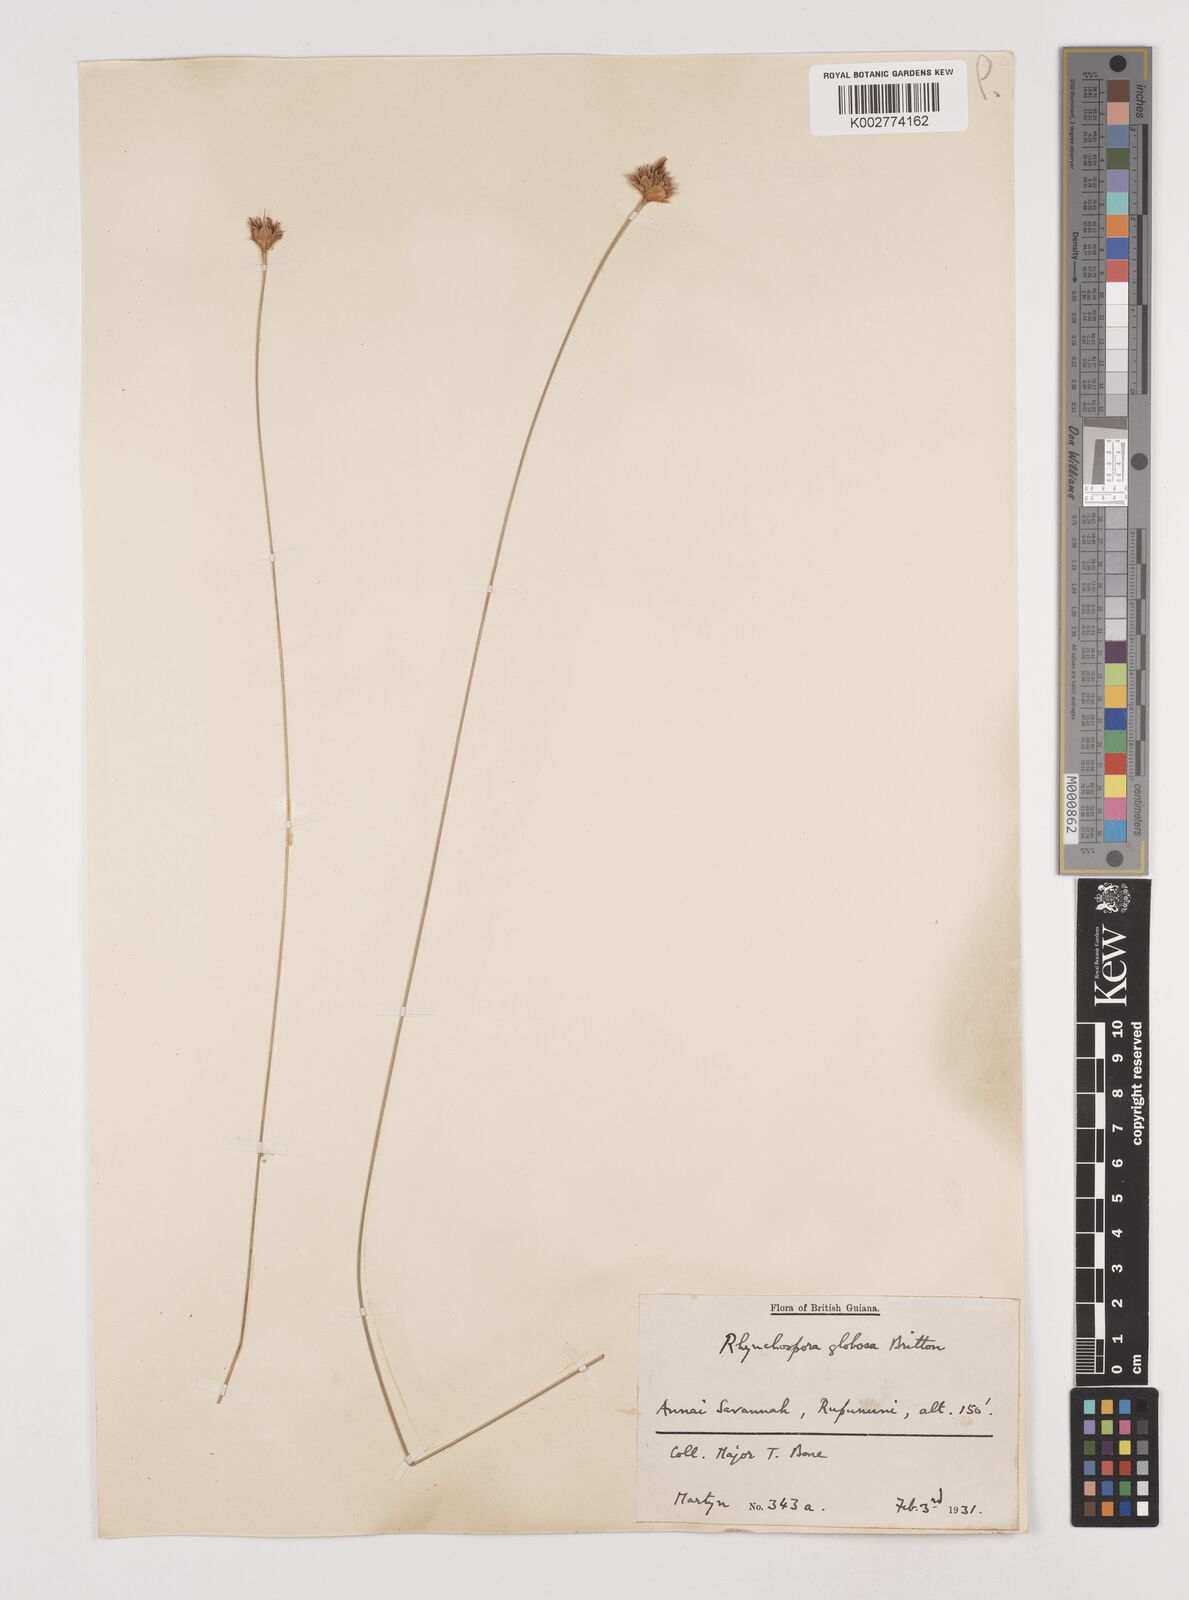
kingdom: Plantae
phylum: Tracheophyta
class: Liliopsida
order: Poales
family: Cyperaceae
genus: Rhynchospora
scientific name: Rhynchospora globosa
